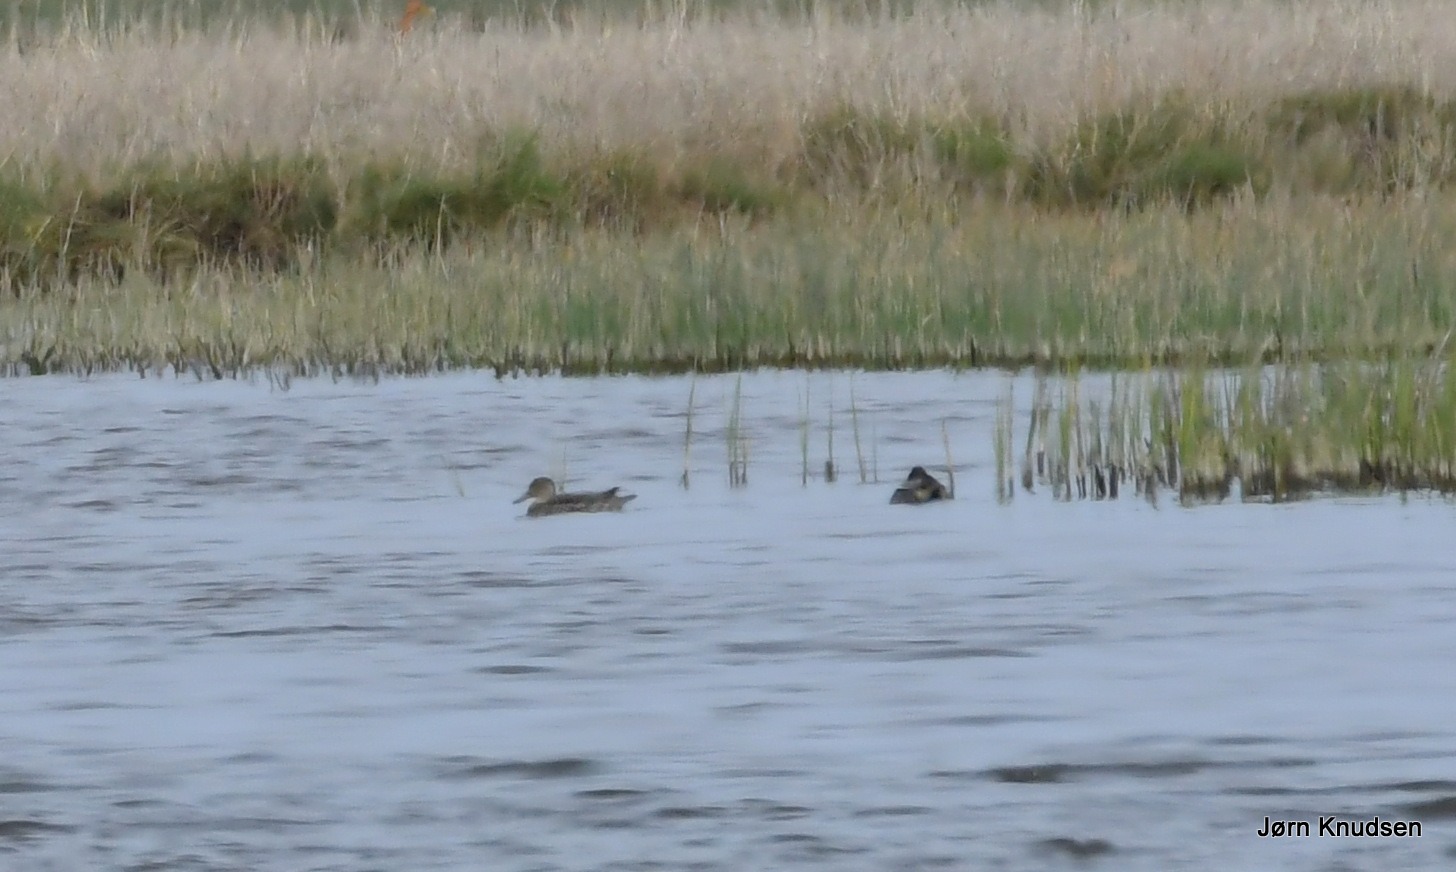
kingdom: Animalia
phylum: Chordata
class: Aves
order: Anseriformes
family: Anatidae
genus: Anas
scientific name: Anas acuta
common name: Spidsand
